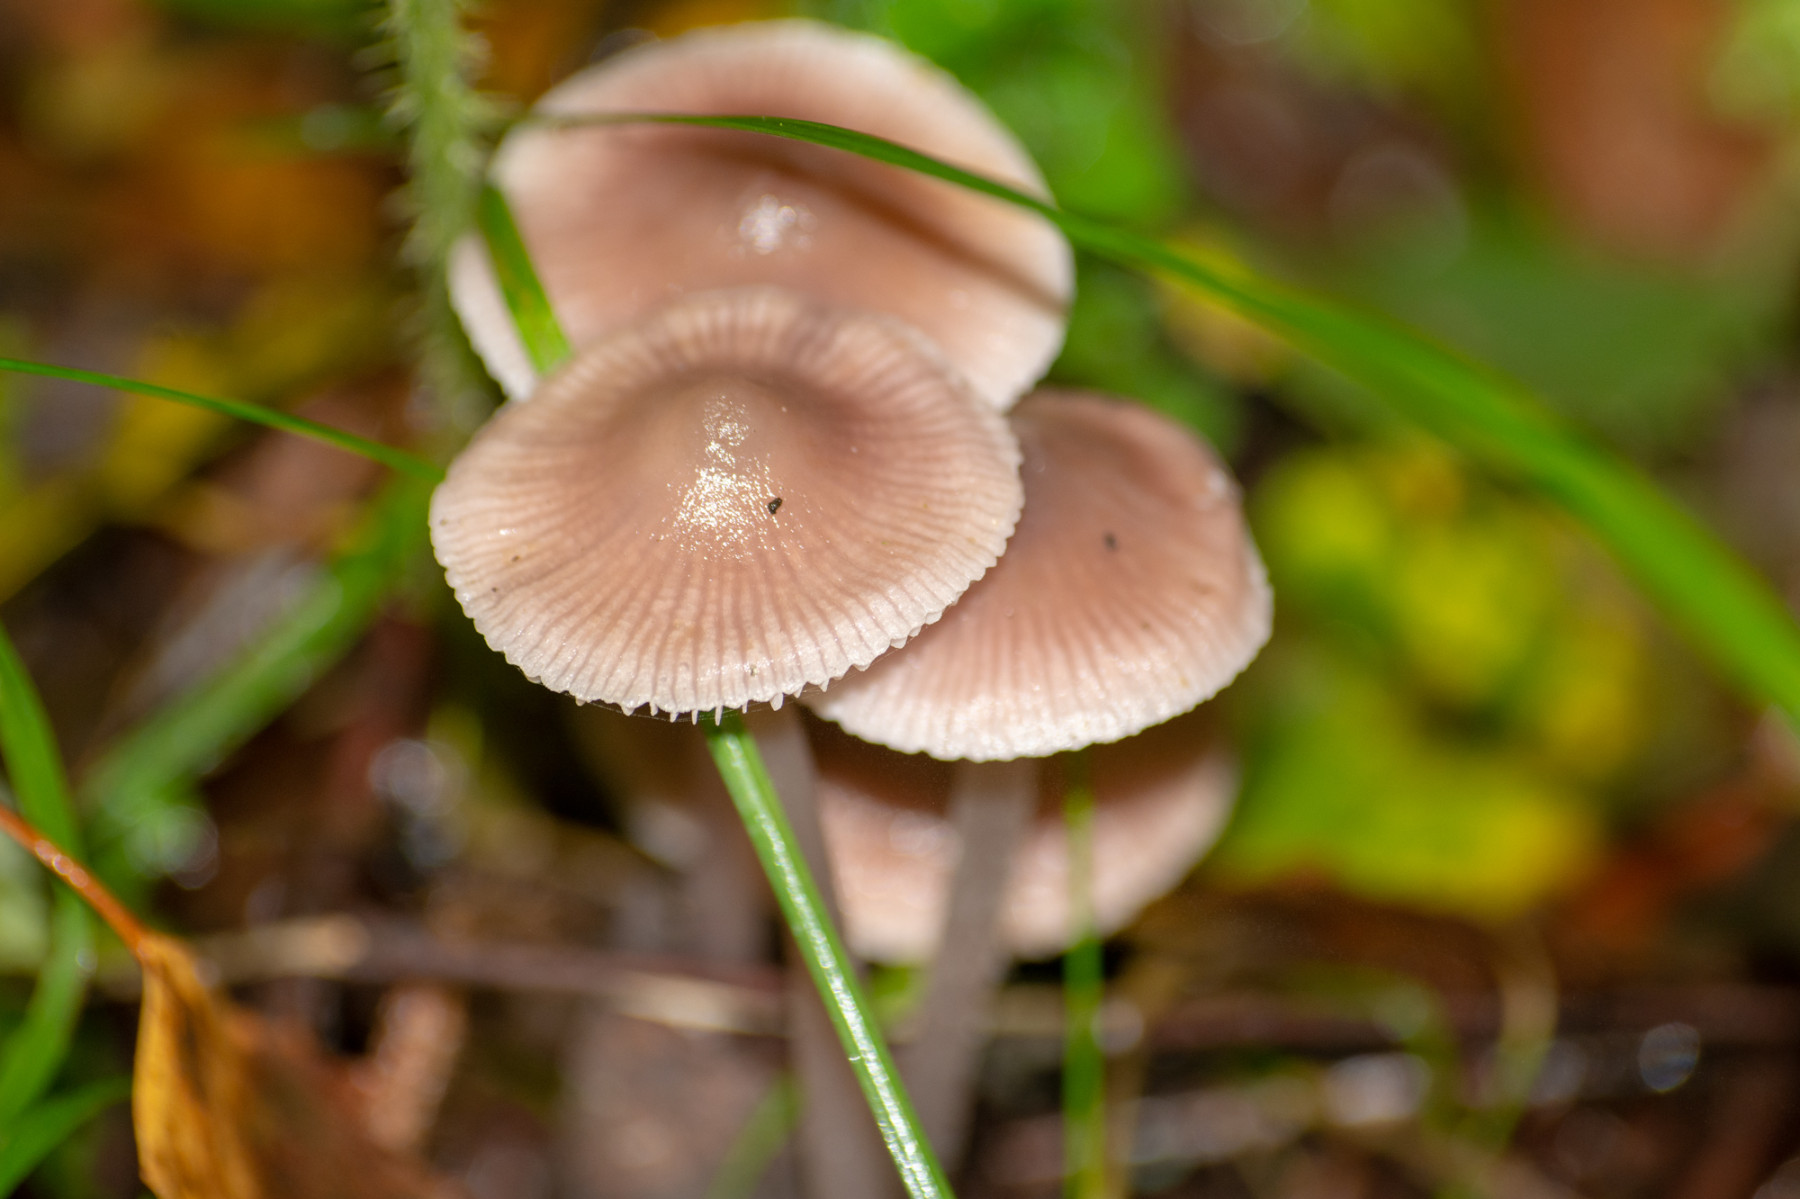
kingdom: Fungi
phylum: Basidiomycota
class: Agaricomycetes
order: Agaricales
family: Mycenaceae
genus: Mycena
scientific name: Mycena
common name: huesvamp
